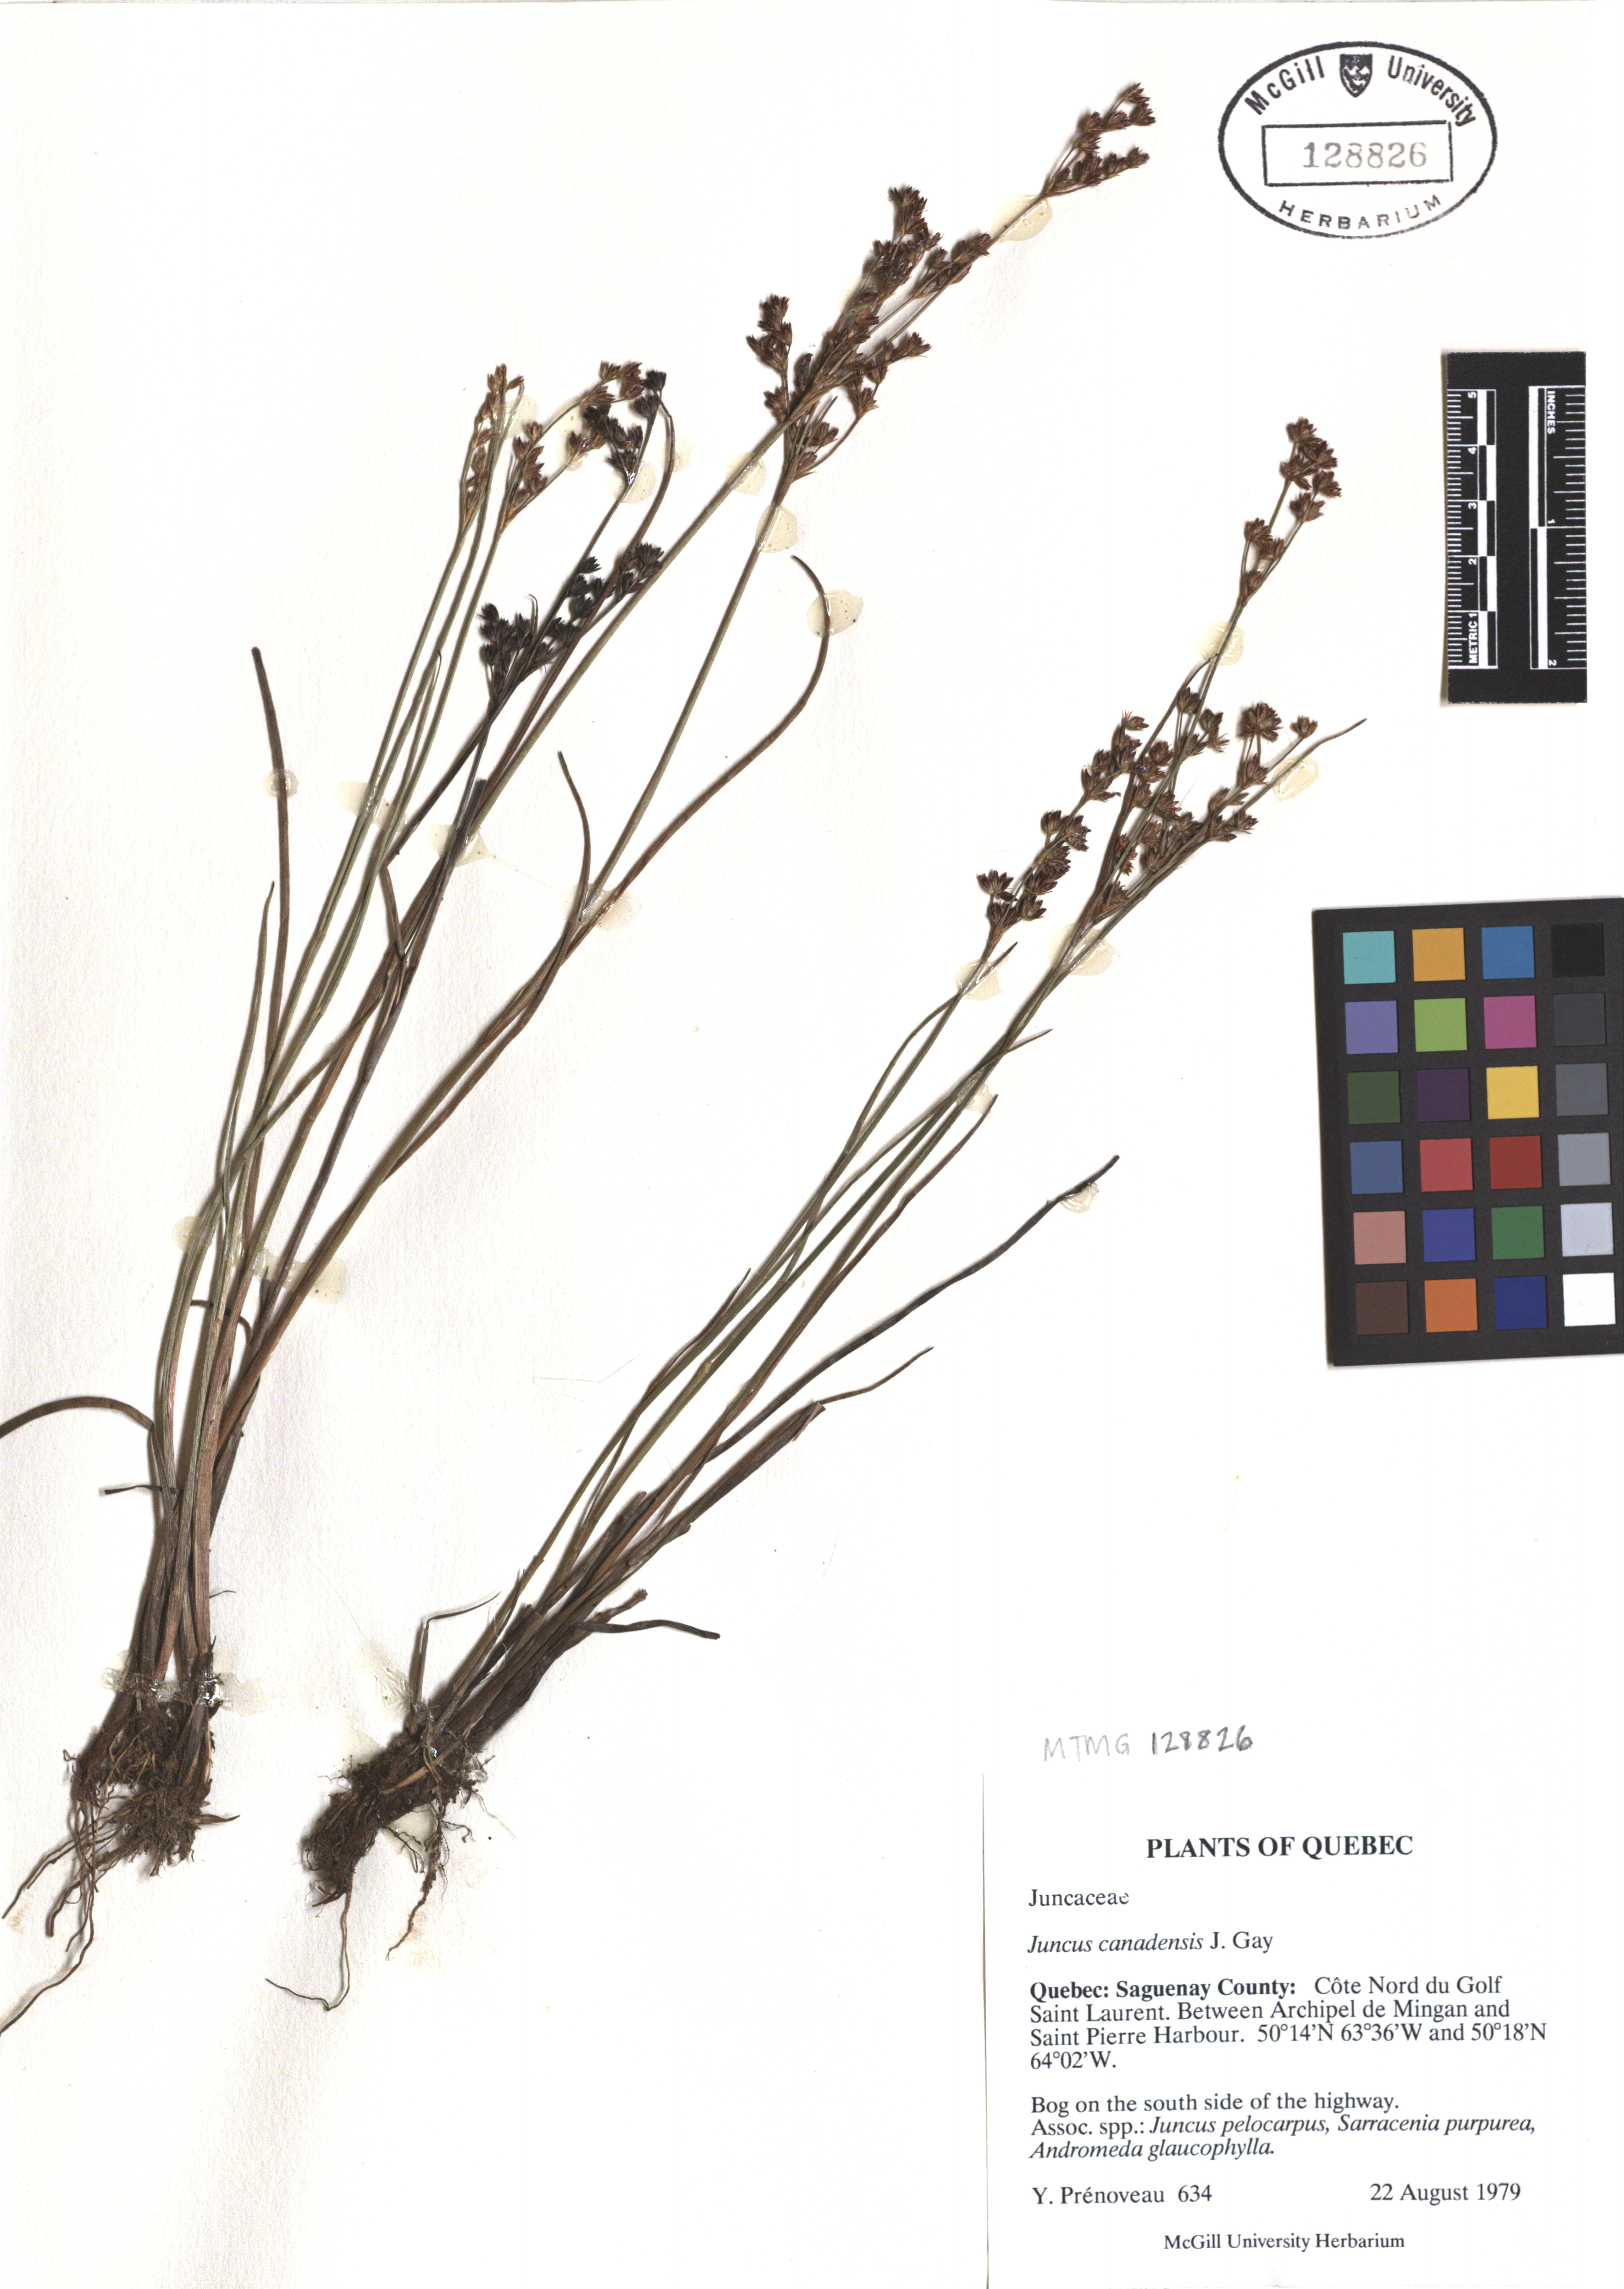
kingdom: Plantae
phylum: Tracheophyta
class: Liliopsida
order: Poales
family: Juncaceae
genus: Juncus
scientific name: Juncus canadensis
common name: Canada rush
